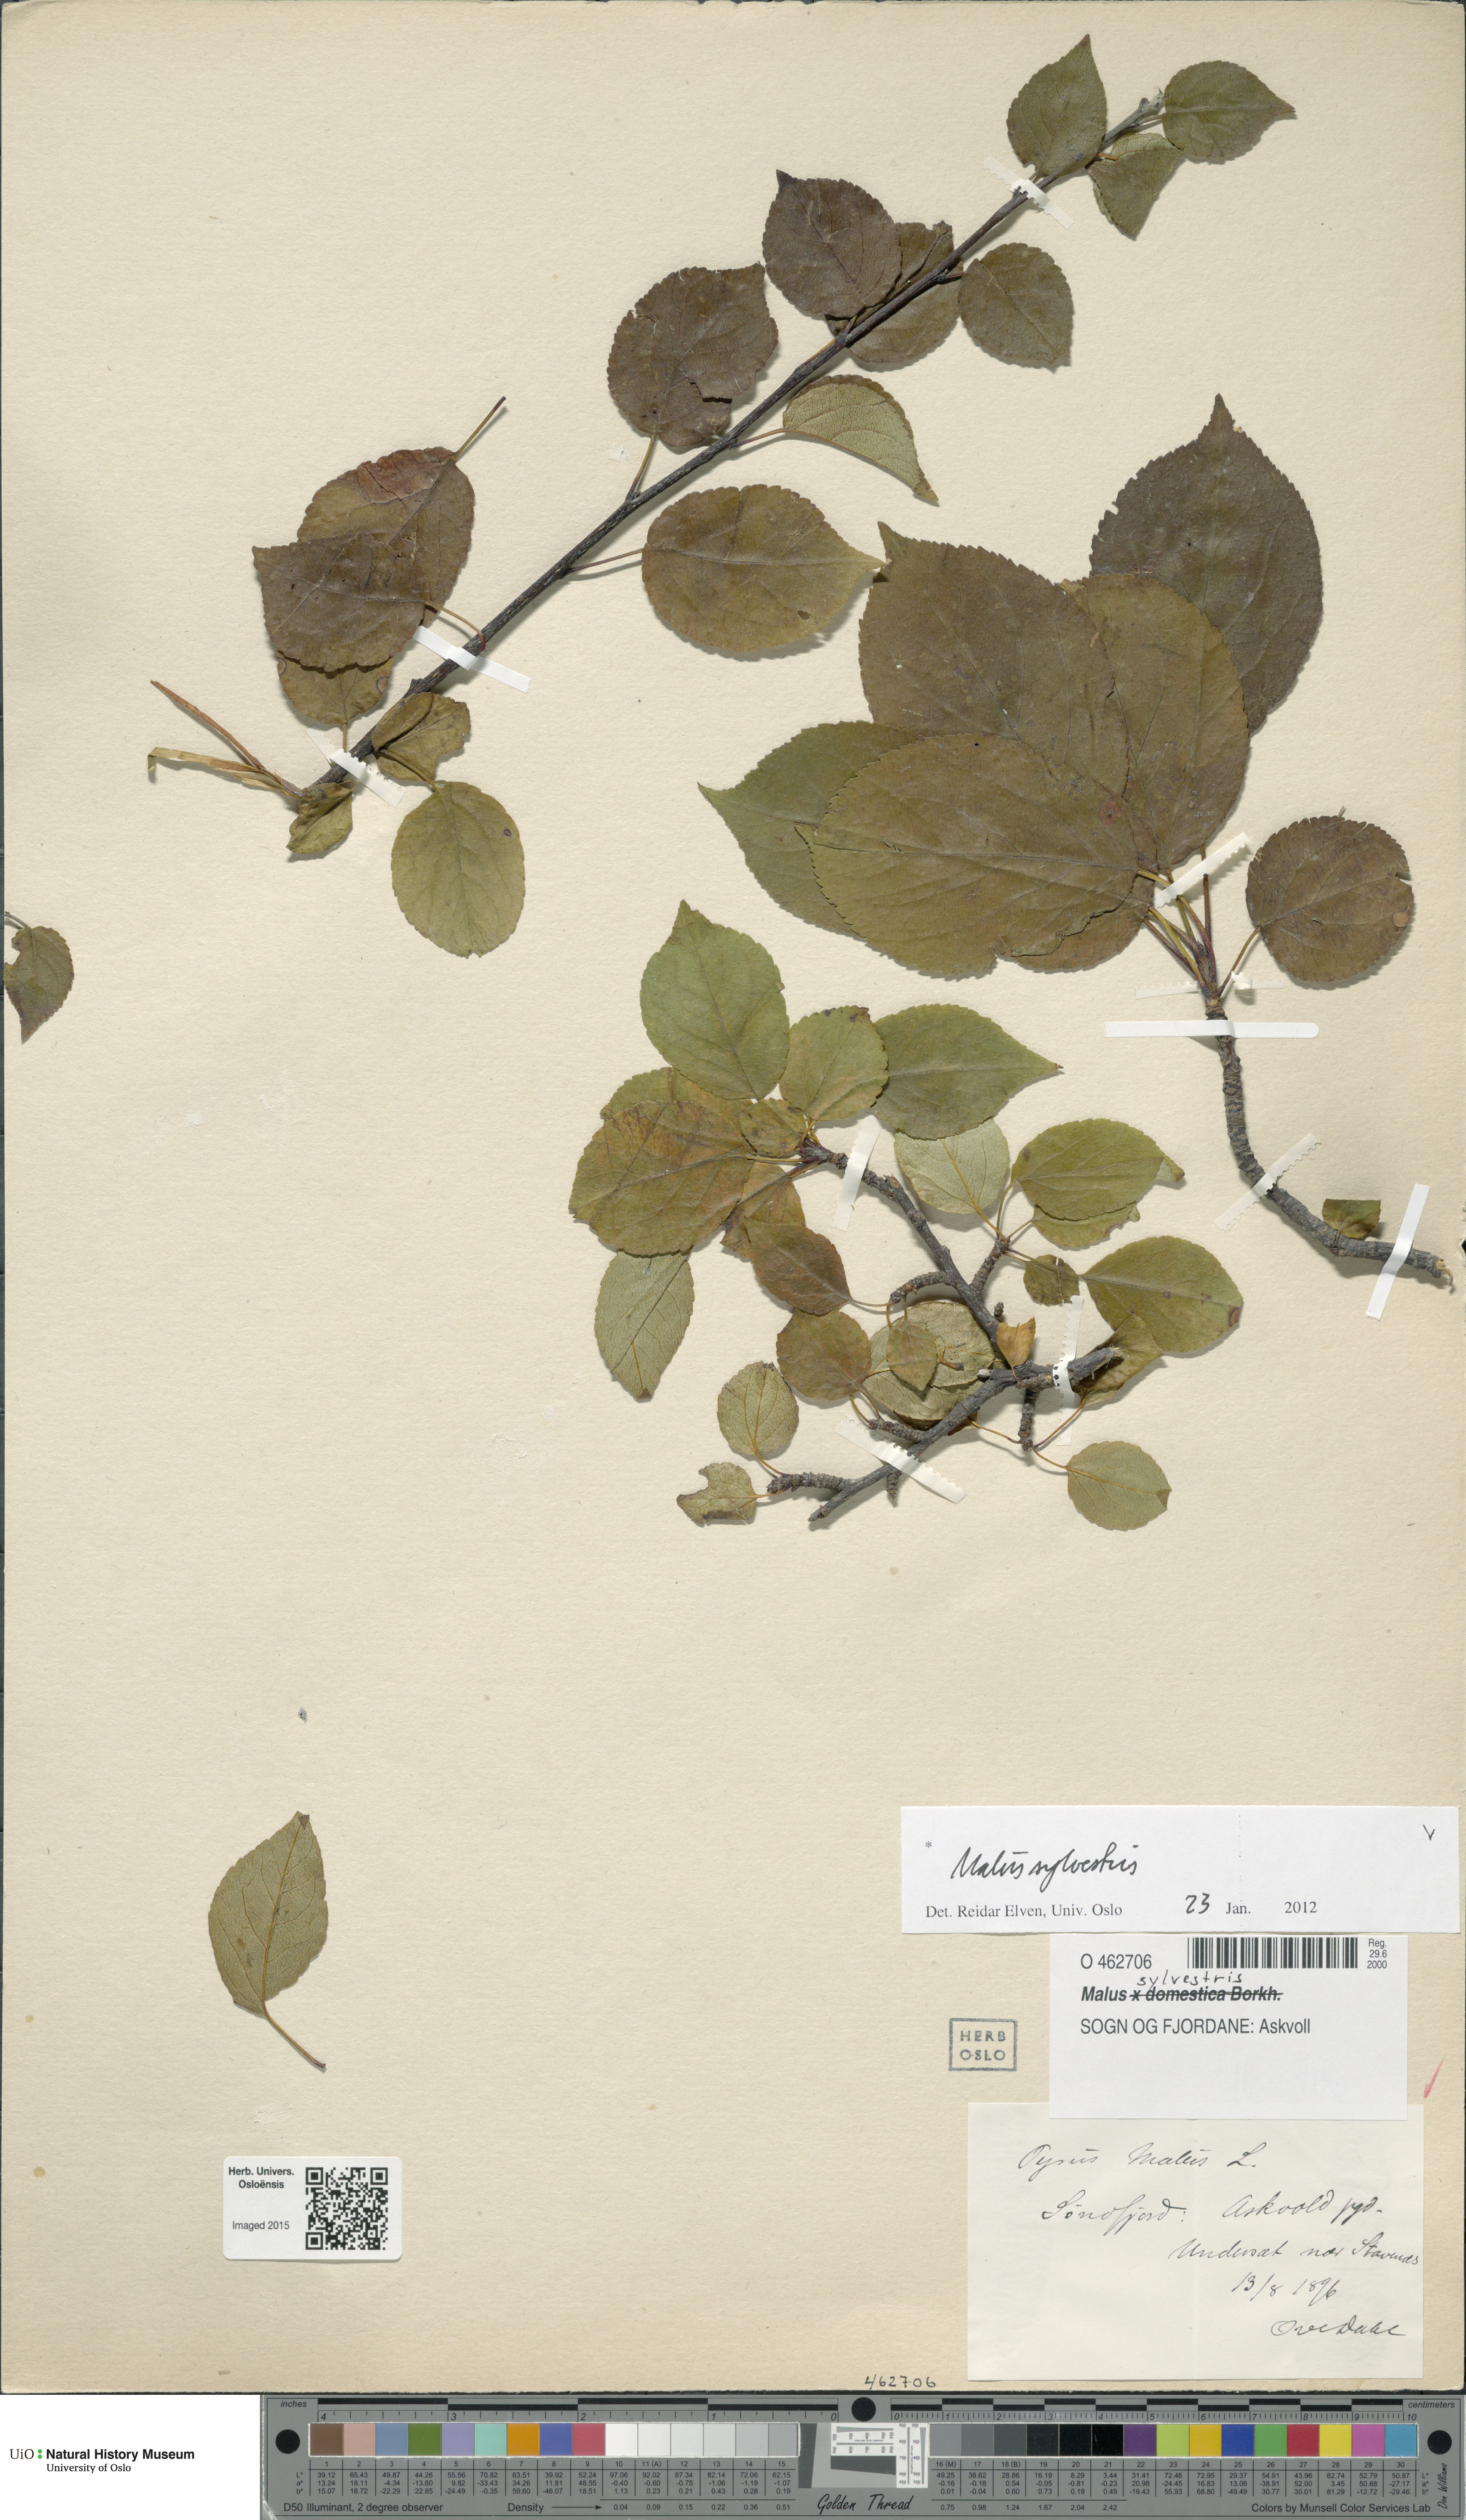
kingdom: Plantae
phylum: Tracheophyta
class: Magnoliopsida
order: Rosales
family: Rosaceae
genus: Malus
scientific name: Malus sylvestris
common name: Crab apple
